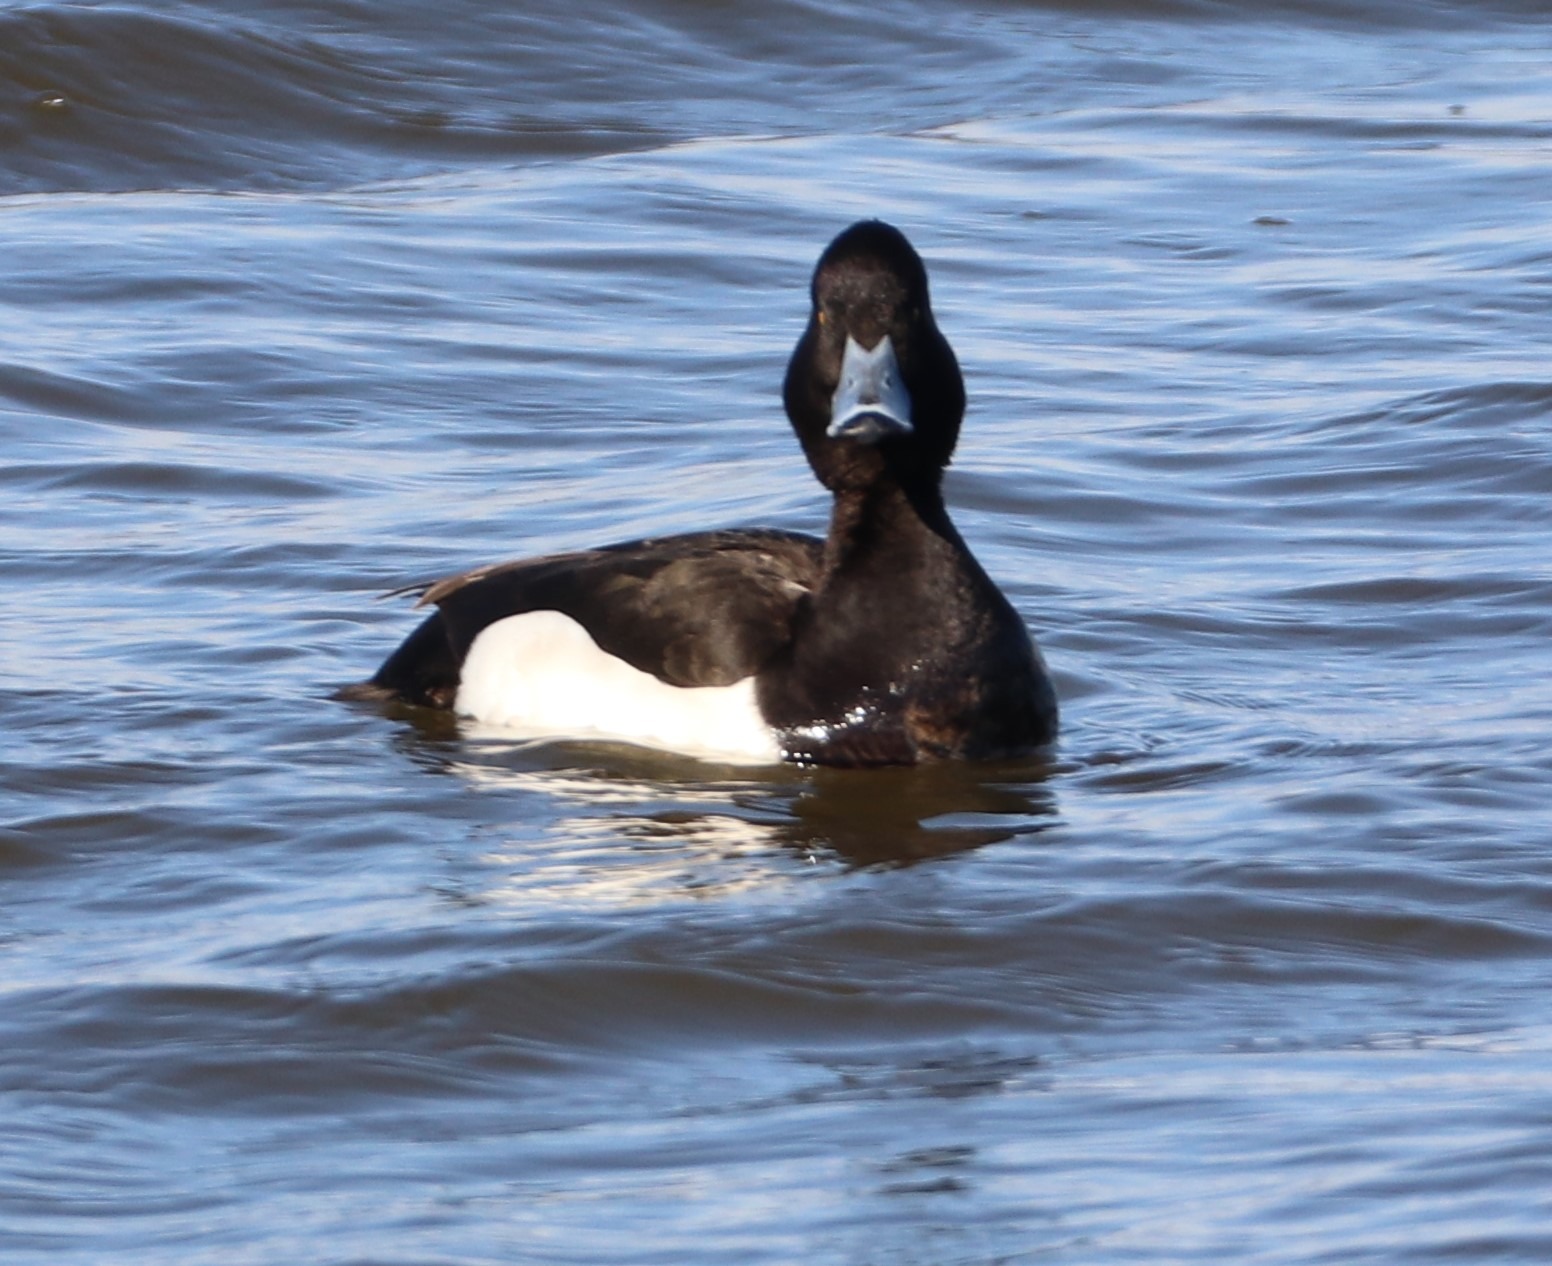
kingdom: Animalia
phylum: Chordata
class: Aves
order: Anseriformes
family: Anatidae
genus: Aythya
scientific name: Aythya fuligula
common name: Troldand
